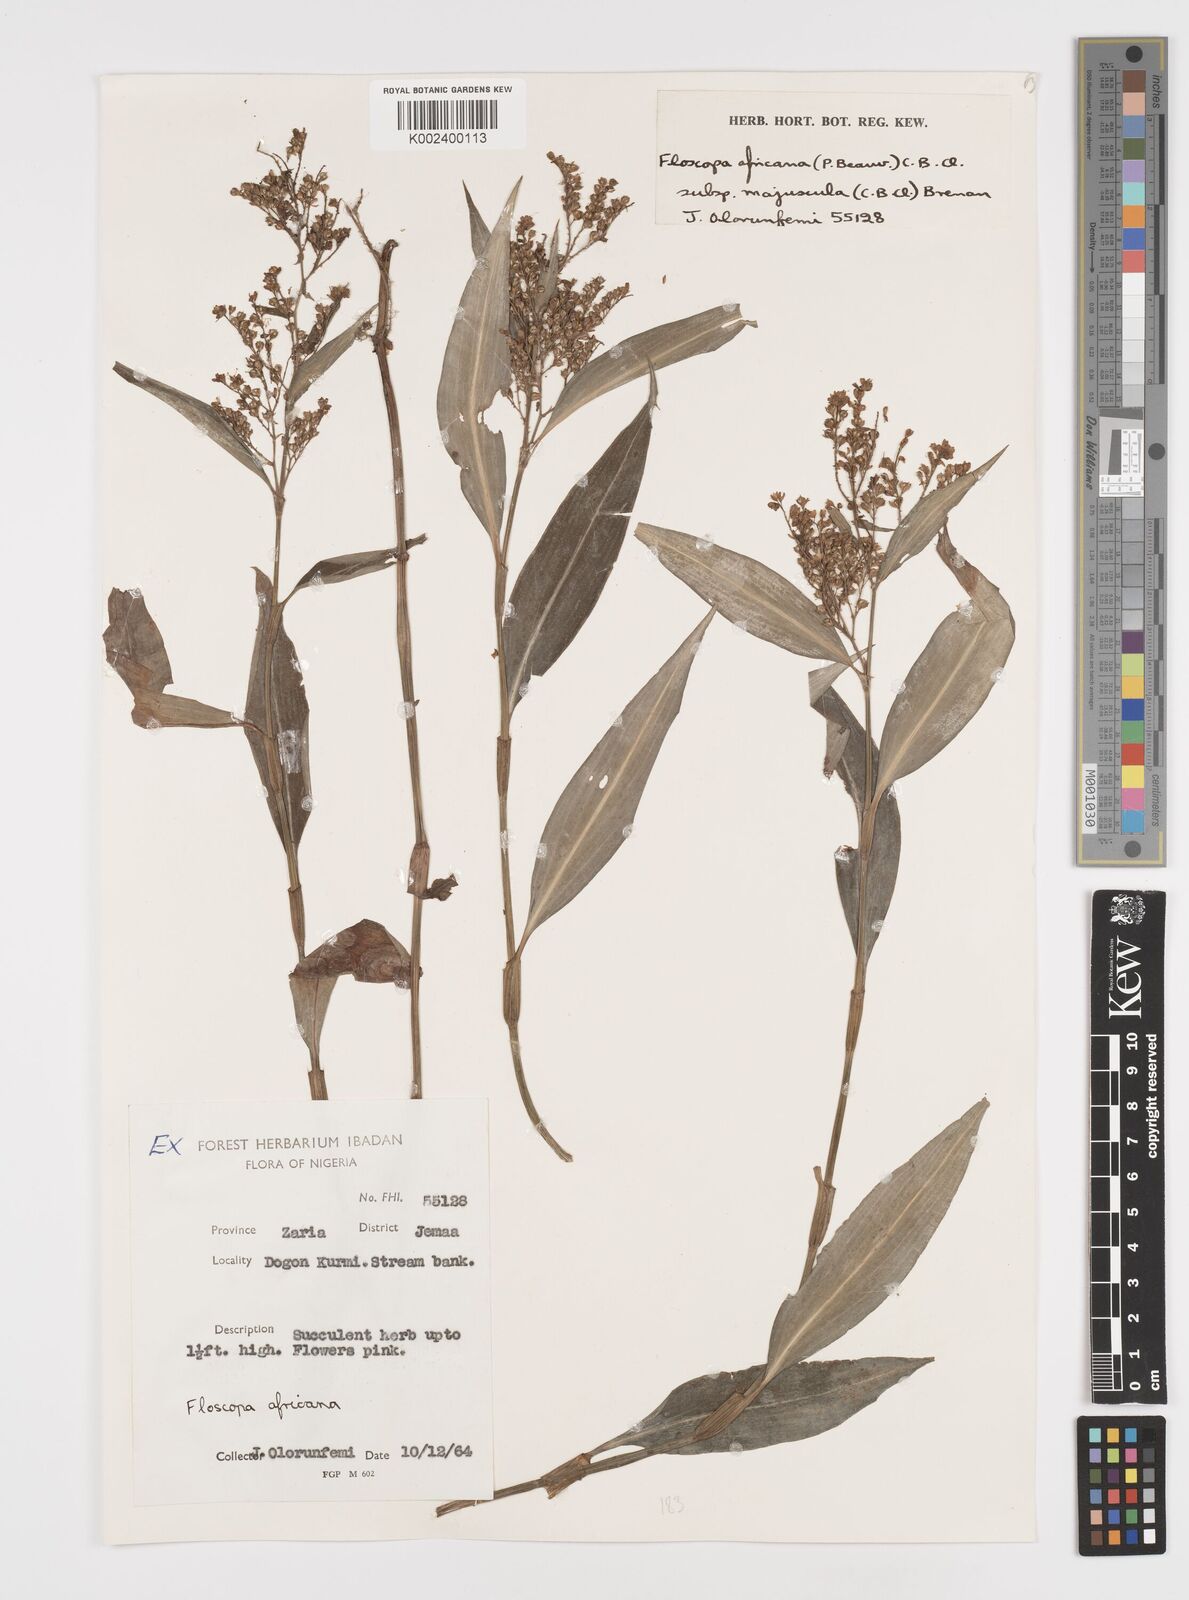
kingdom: Plantae
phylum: Tracheophyta
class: Liliopsida
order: Commelinales
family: Commelinaceae
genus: Floscopa
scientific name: Floscopa africana
